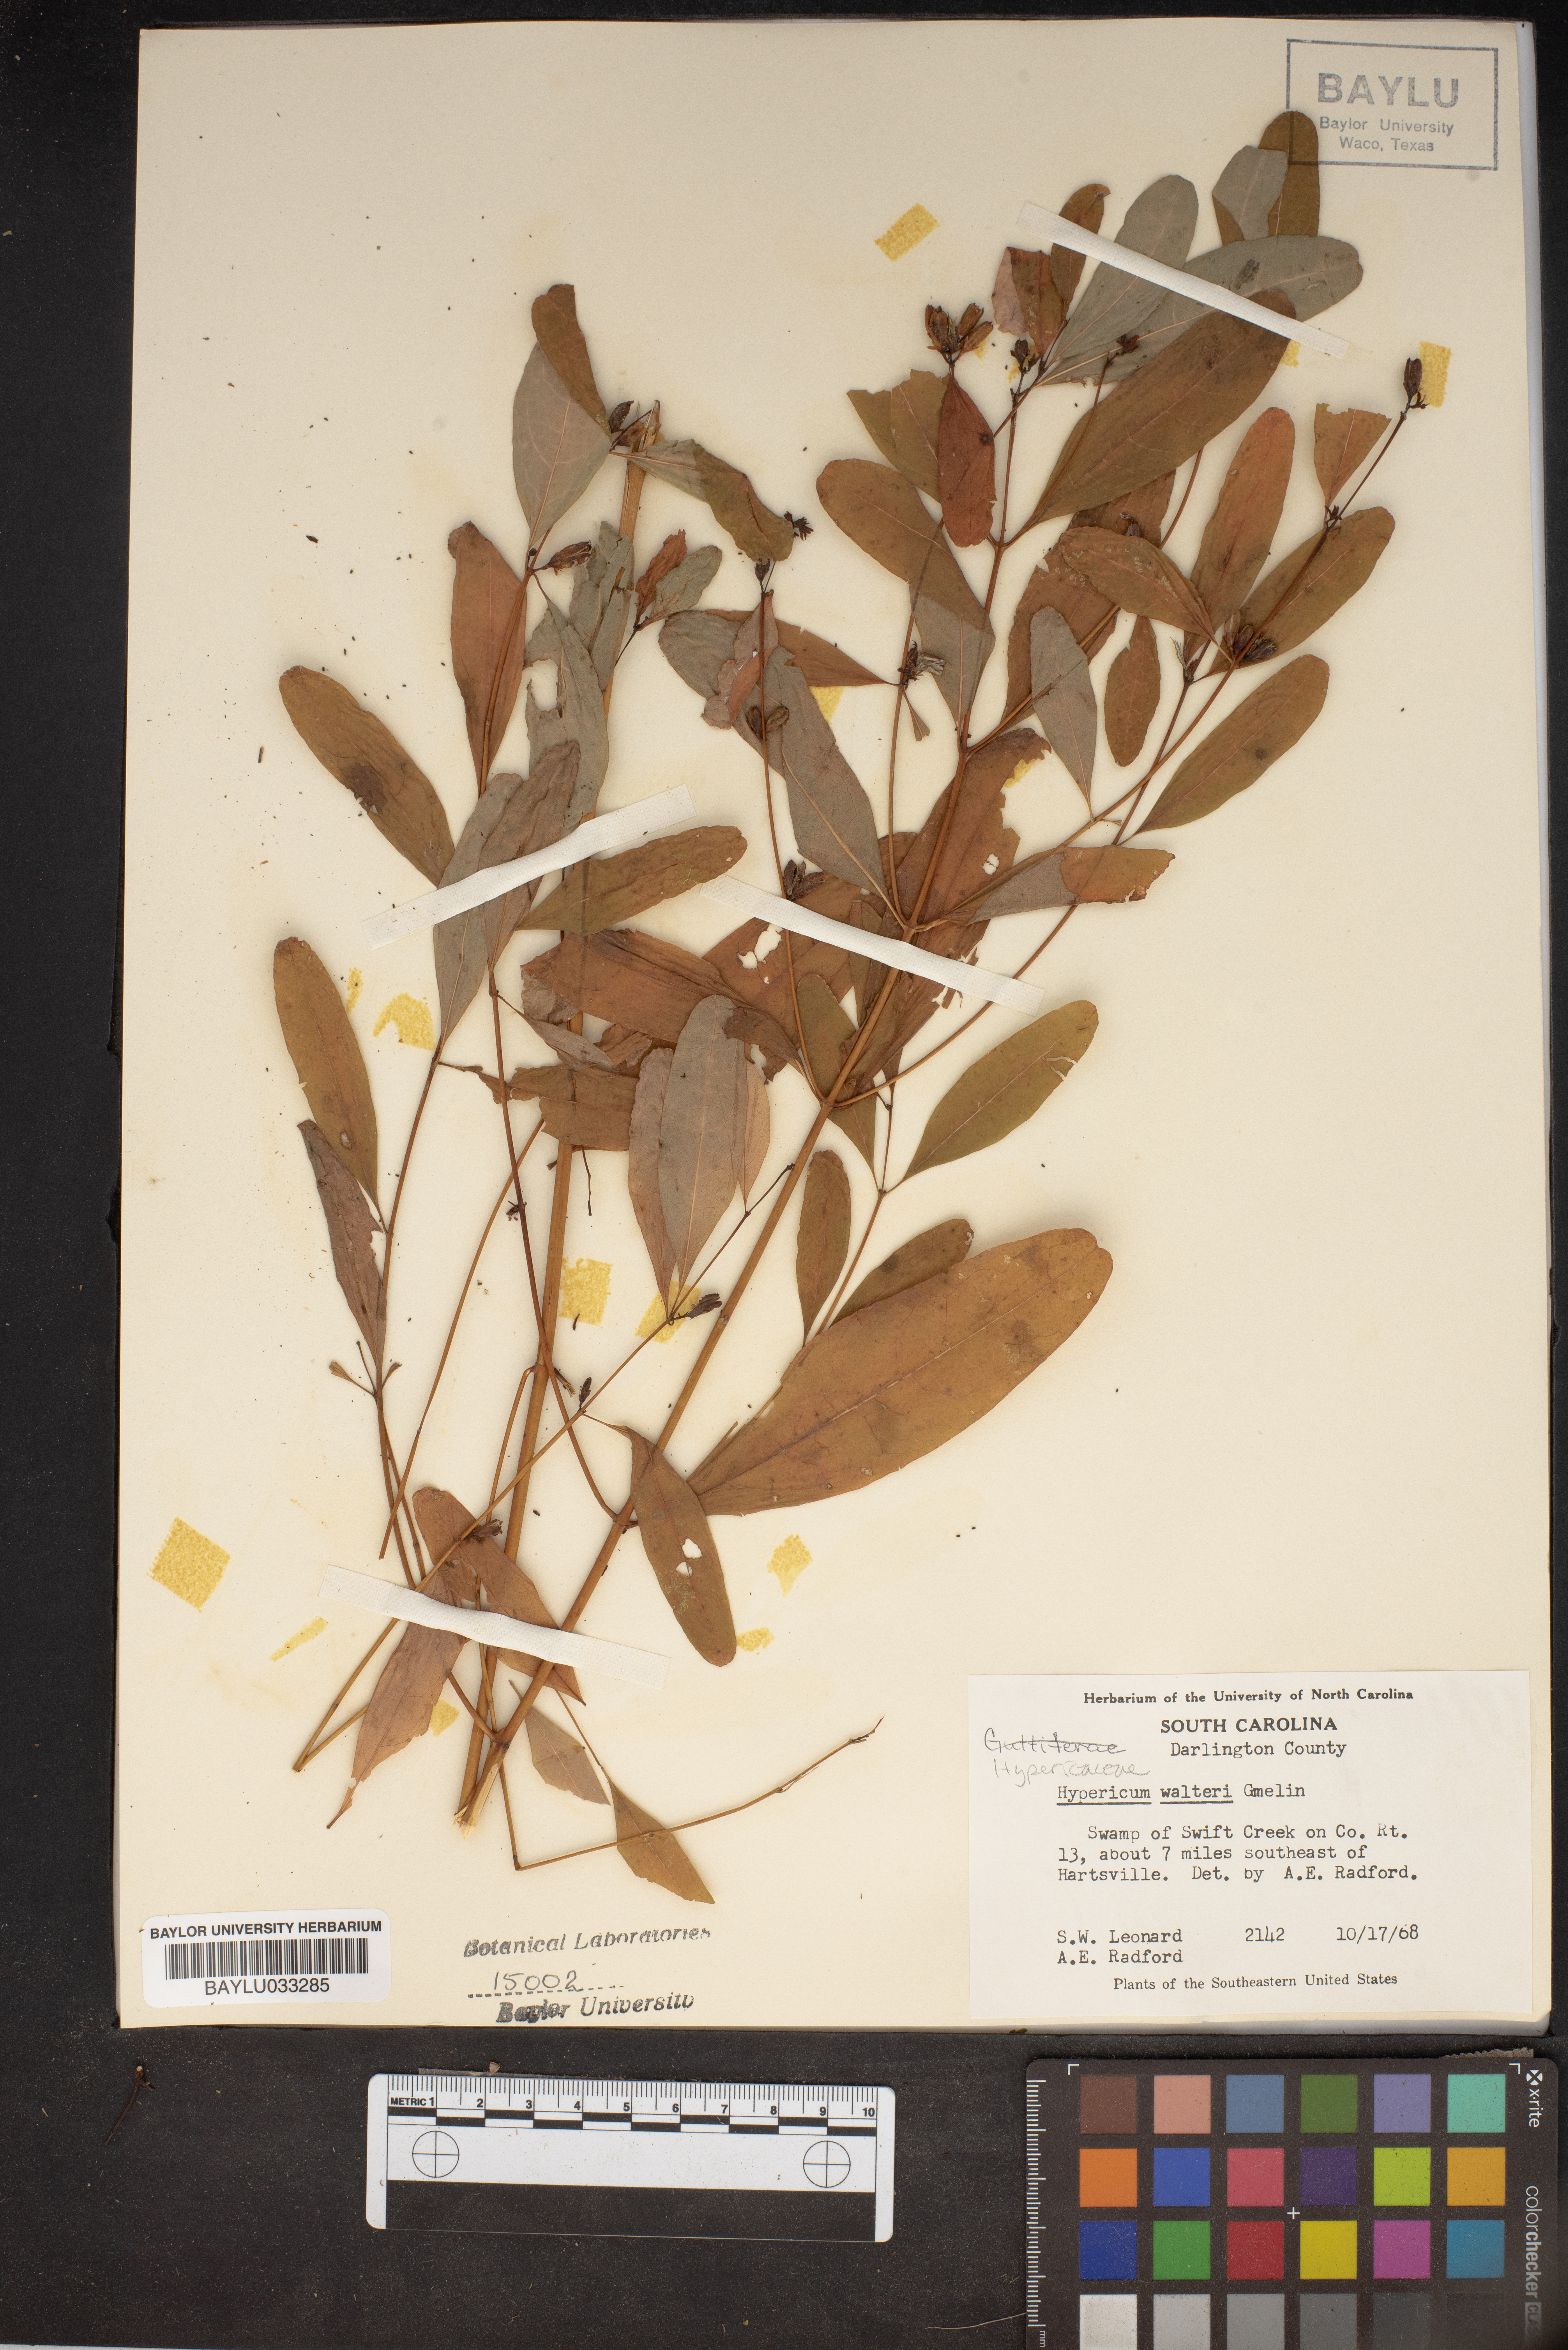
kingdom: Plantae
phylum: Tracheophyta
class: Magnoliopsida
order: Malpighiales
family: Hypericaceae
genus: Triadenum
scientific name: Triadenum walteri
